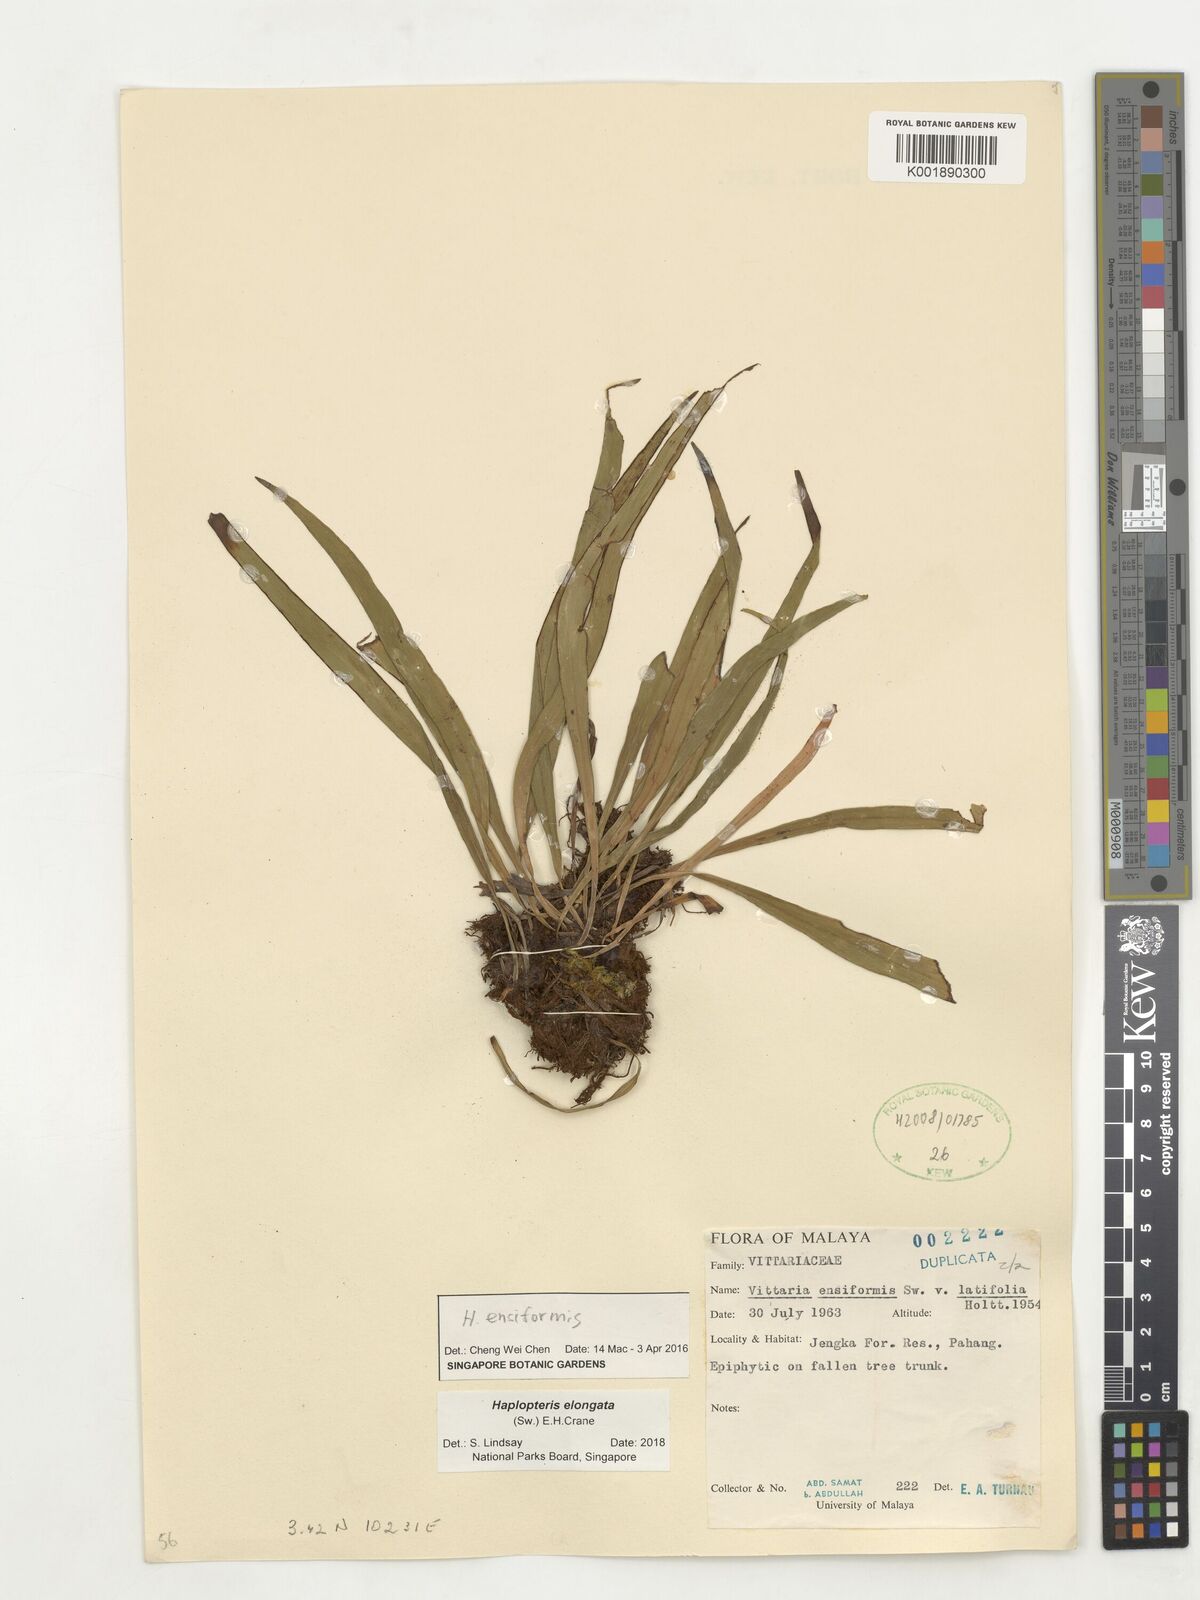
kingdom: Plantae
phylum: Tracheophyta
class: Polypodiopsida
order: Polypodiales
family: Pteridaceae
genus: Haplopteris
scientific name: Haplopteris ensiformis
